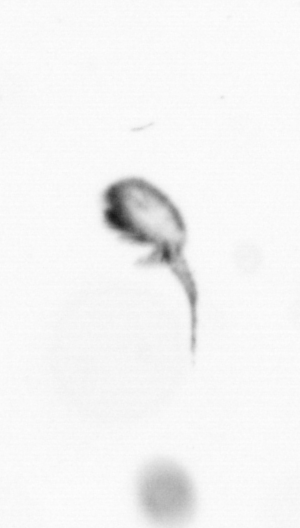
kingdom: Animalia
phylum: Arthropoda
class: Copepoda
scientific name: Copepoda
